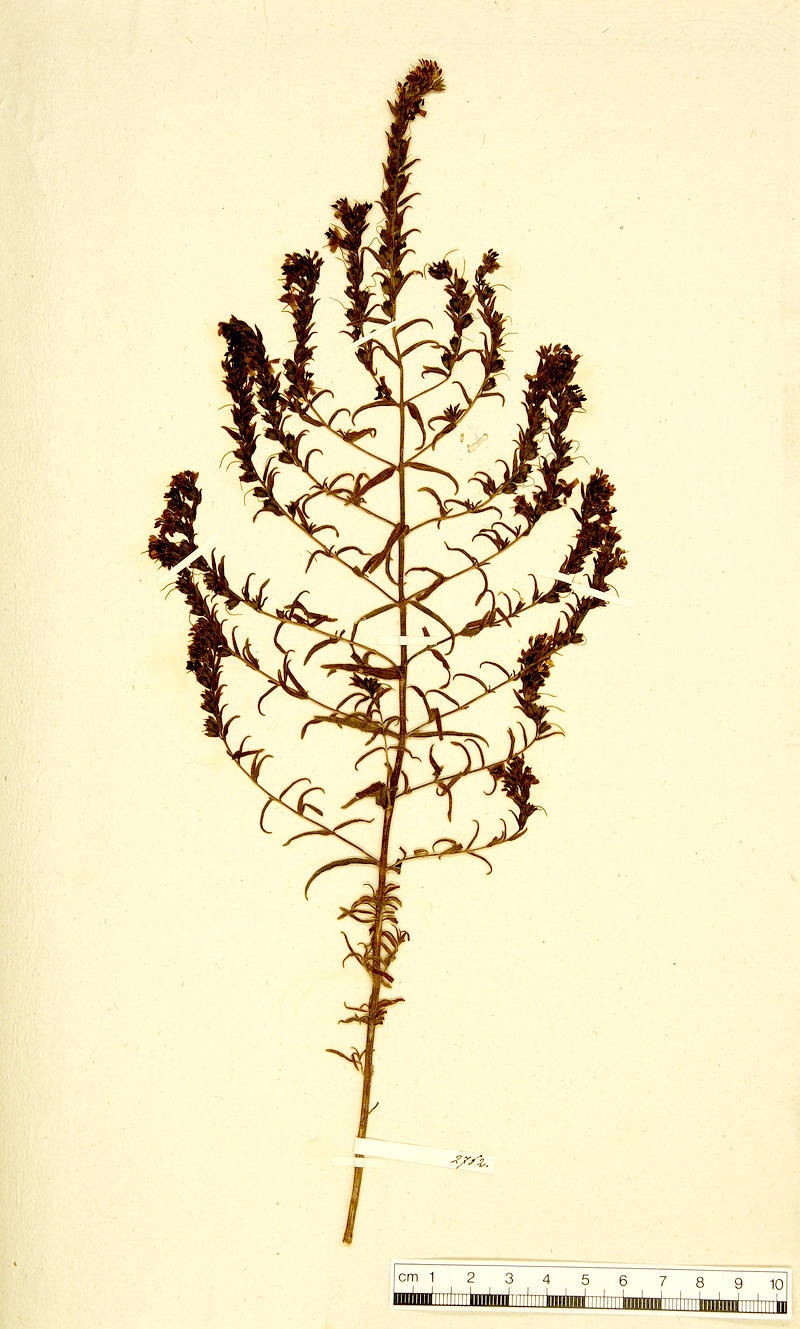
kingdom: Plantae
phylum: Tracheophyta
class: Magnoliopsida
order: Lamiales
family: Orobanchaceae
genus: Odontites
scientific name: Odontites luteus
